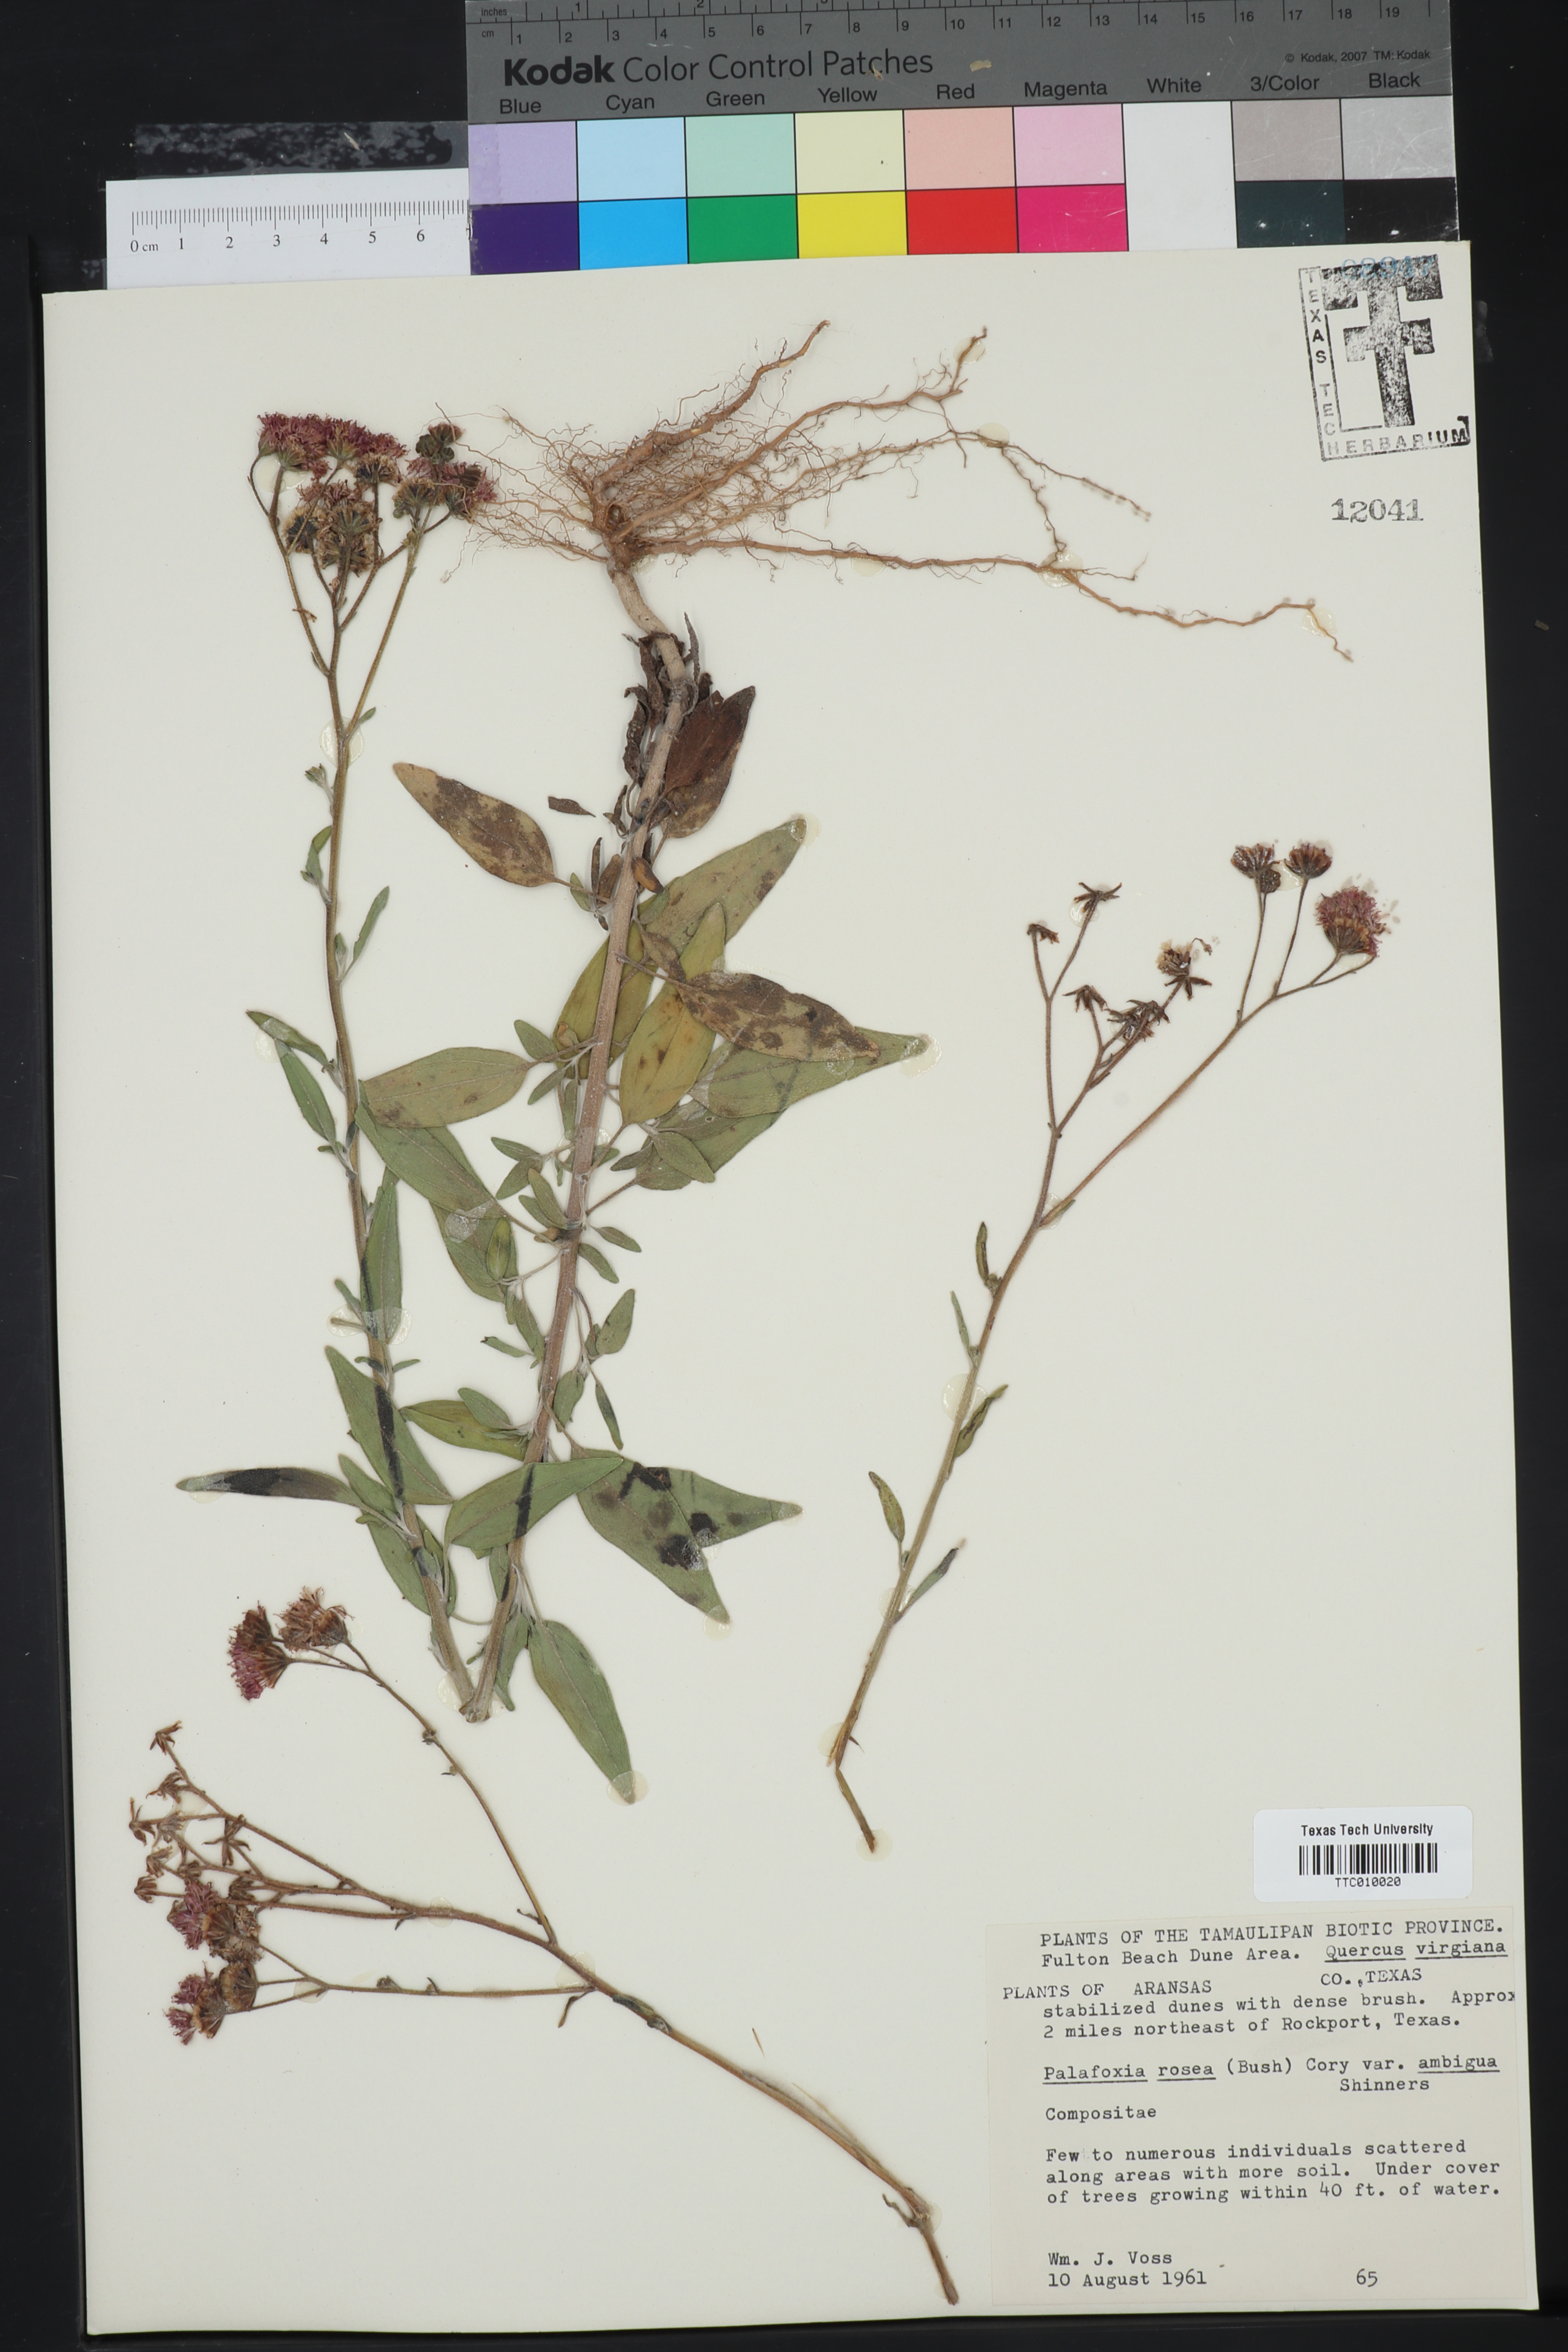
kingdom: Plantae
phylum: Tracheophyta
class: Magnoliopsida
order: Asterales
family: Asteraceae
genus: Palafoxia
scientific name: Palafoxia texana
